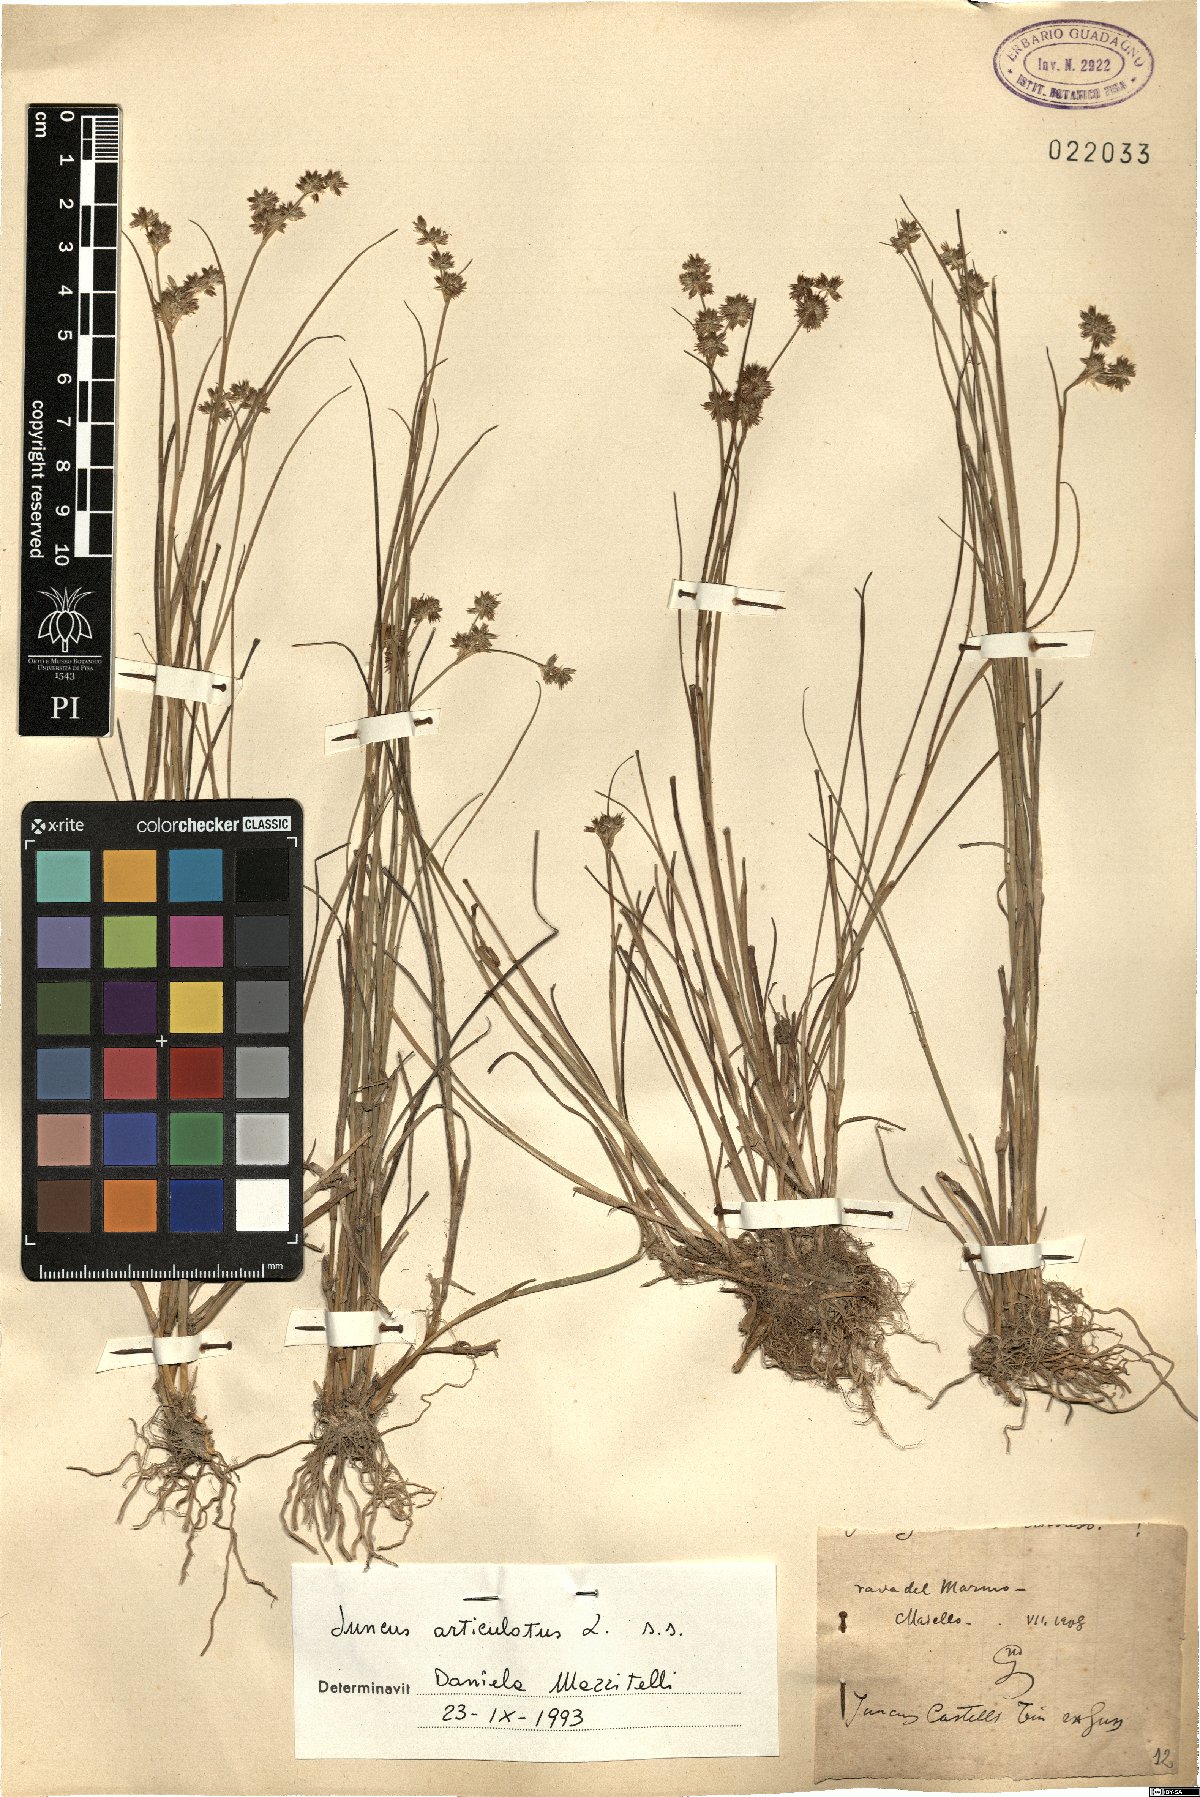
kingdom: Plantae
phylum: Tracheophyta
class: Liliopsida
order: Poales
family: Juncaceae
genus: Juncus
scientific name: Juncus articulatus
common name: Jointed rush
